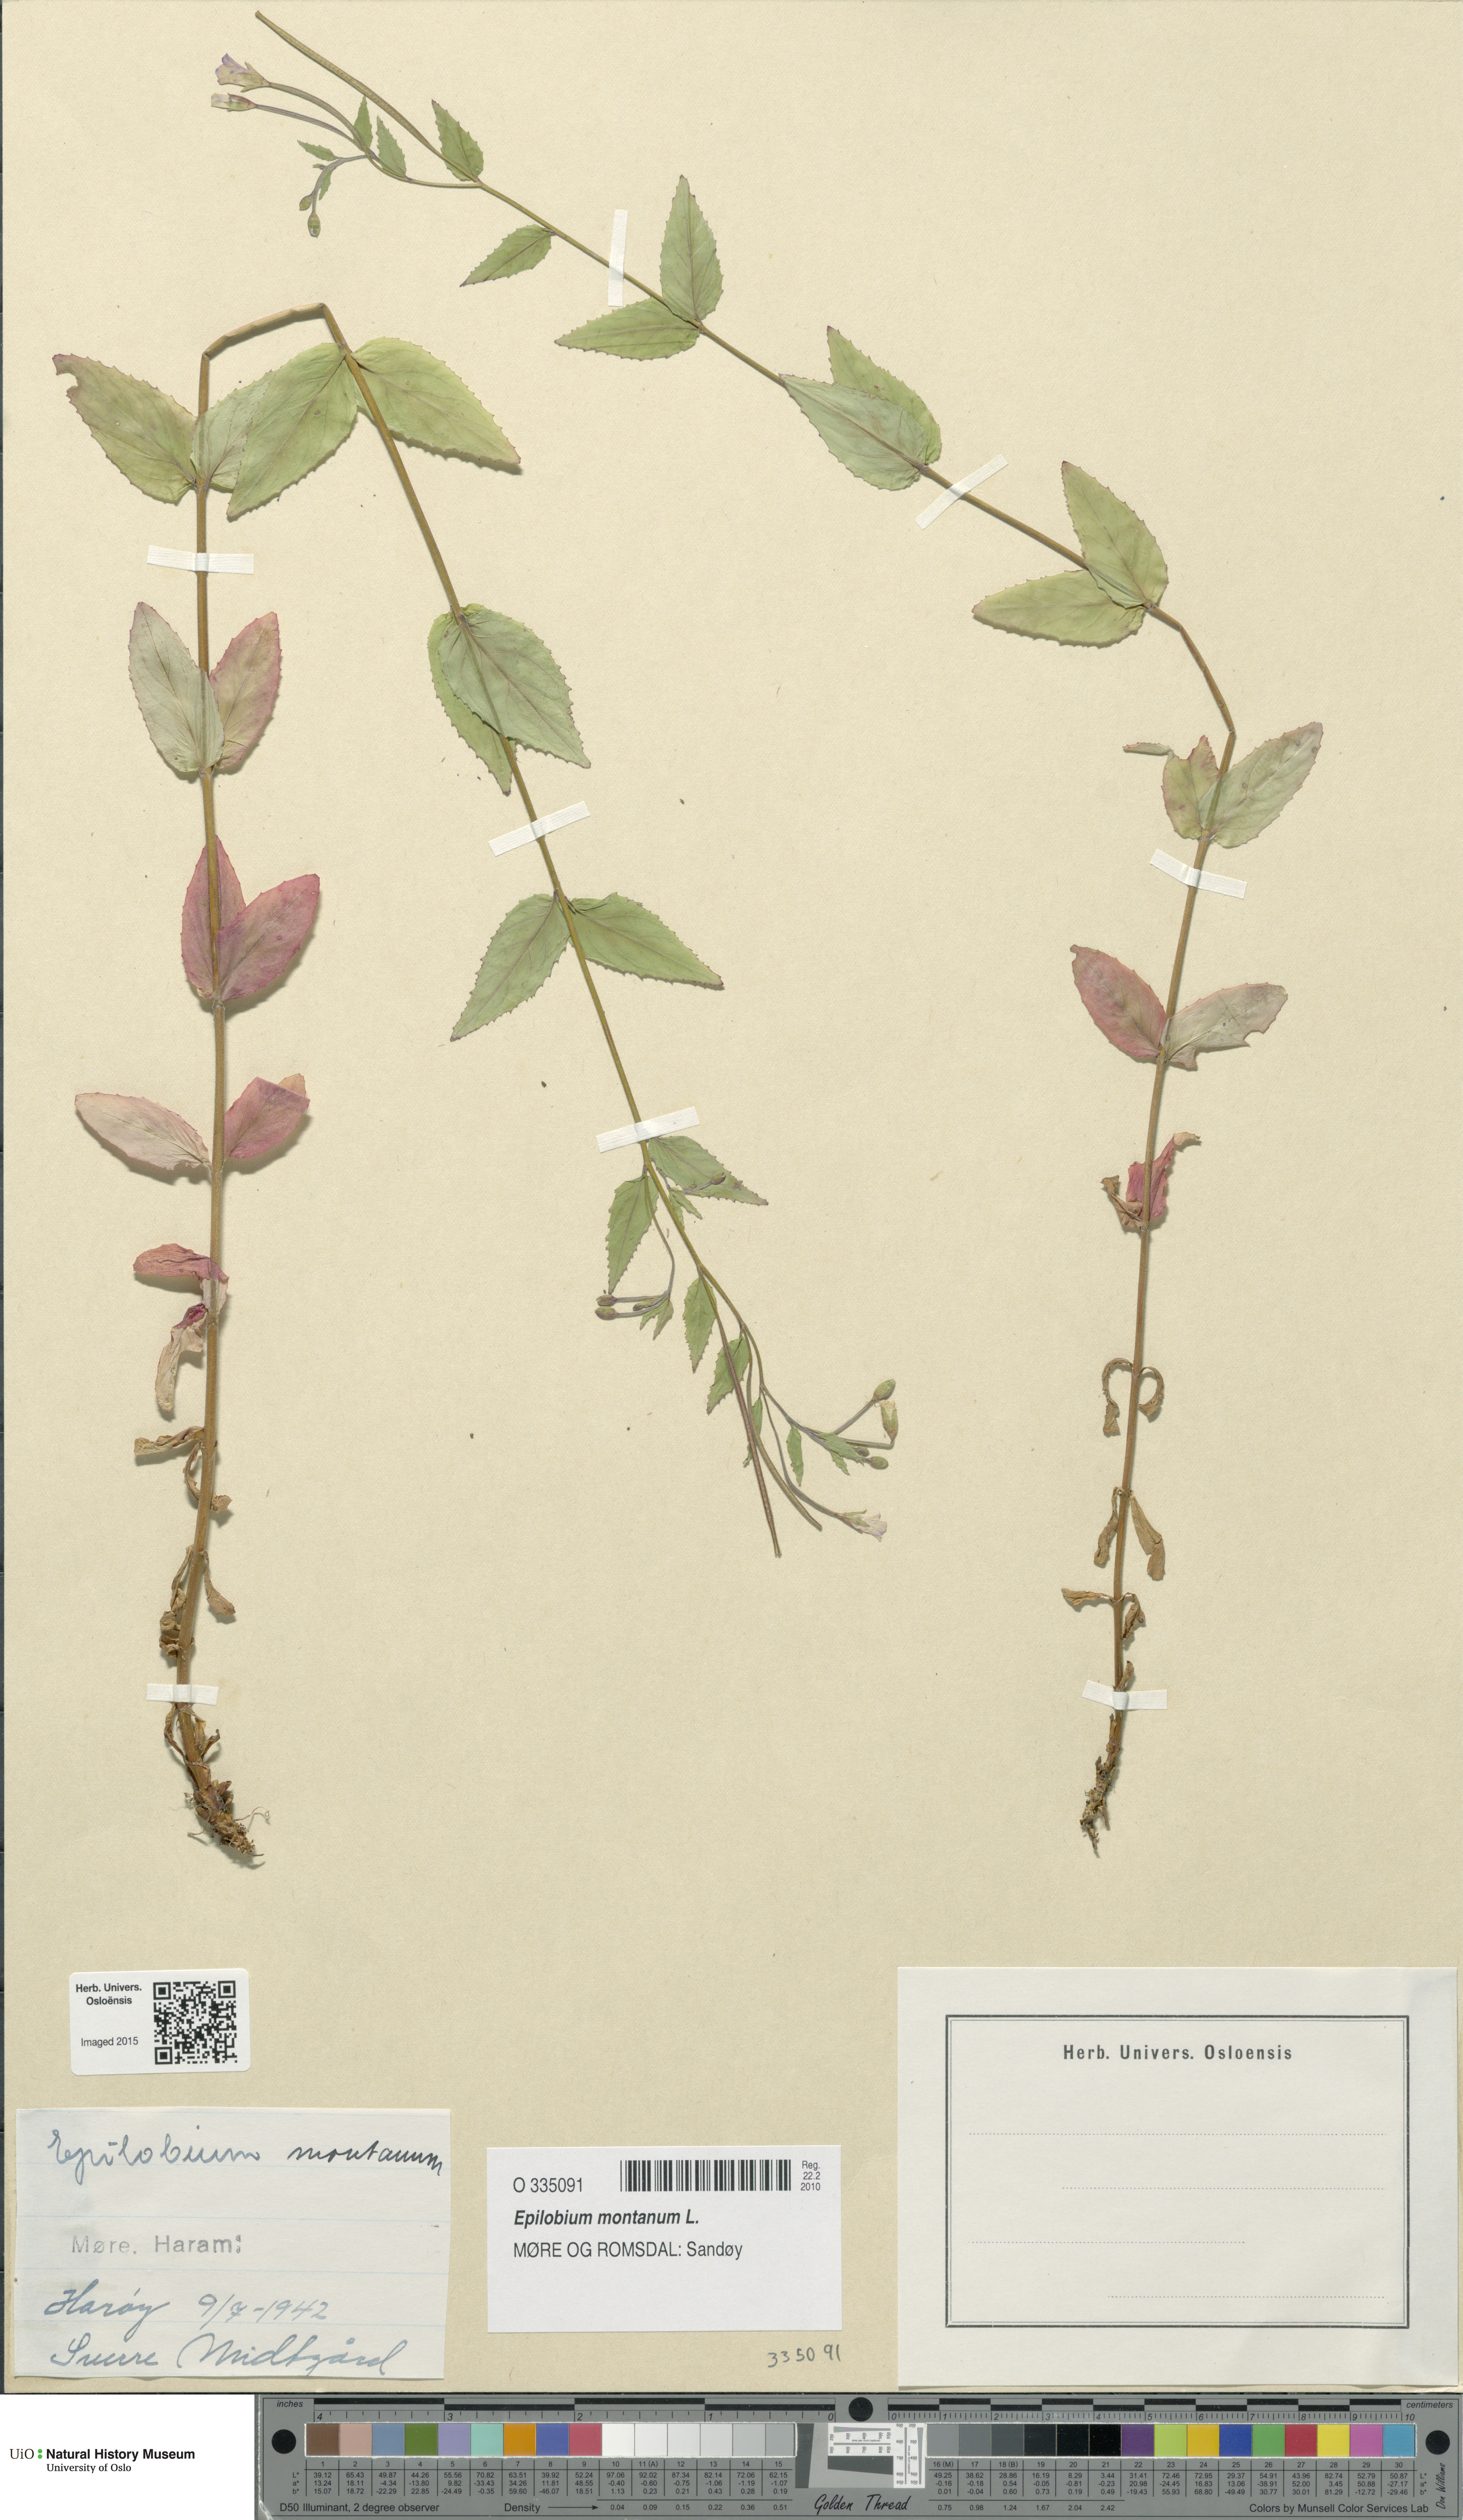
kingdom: Plantae
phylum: Tracheophyta
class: Magnoliopsida
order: Myrtales
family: Onagraceae
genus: Epilobium
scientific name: Epilobium montanum
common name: Broad-leaved willowherb
